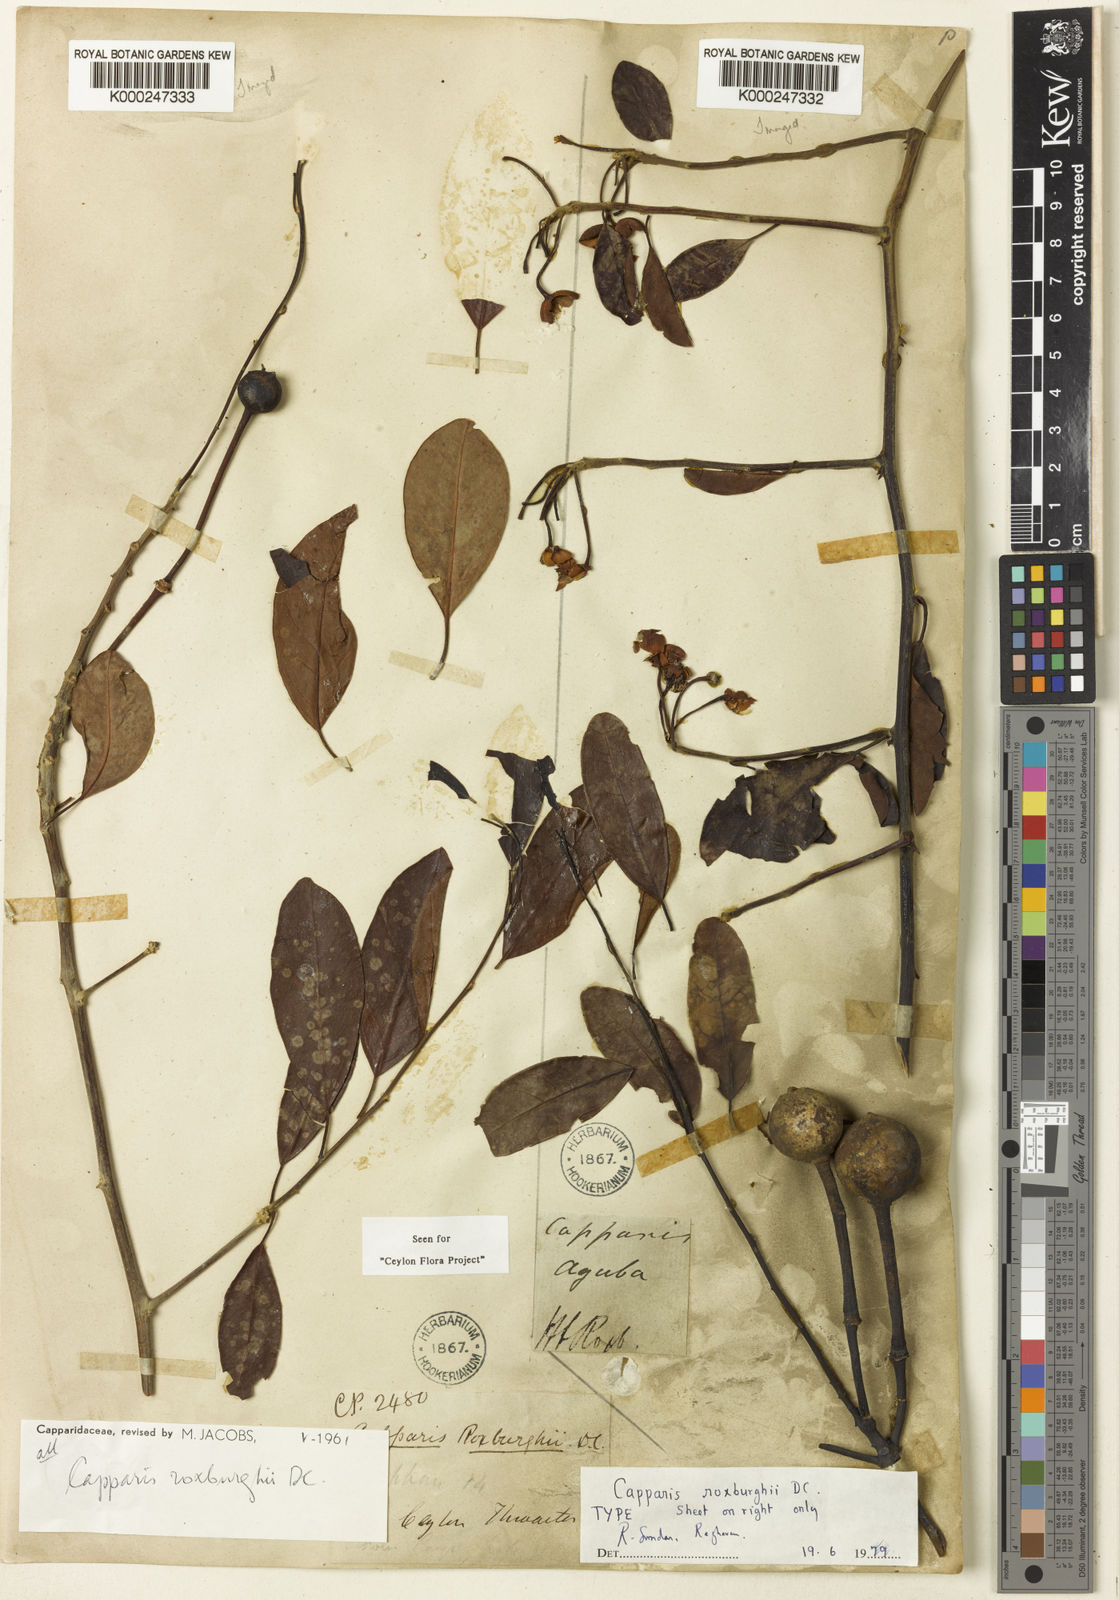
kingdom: Plantae
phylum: Tracheophyta
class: Magnoliopsida
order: Brassicales
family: Capparaceae
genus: Capparis
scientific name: Capparis roxburghii
